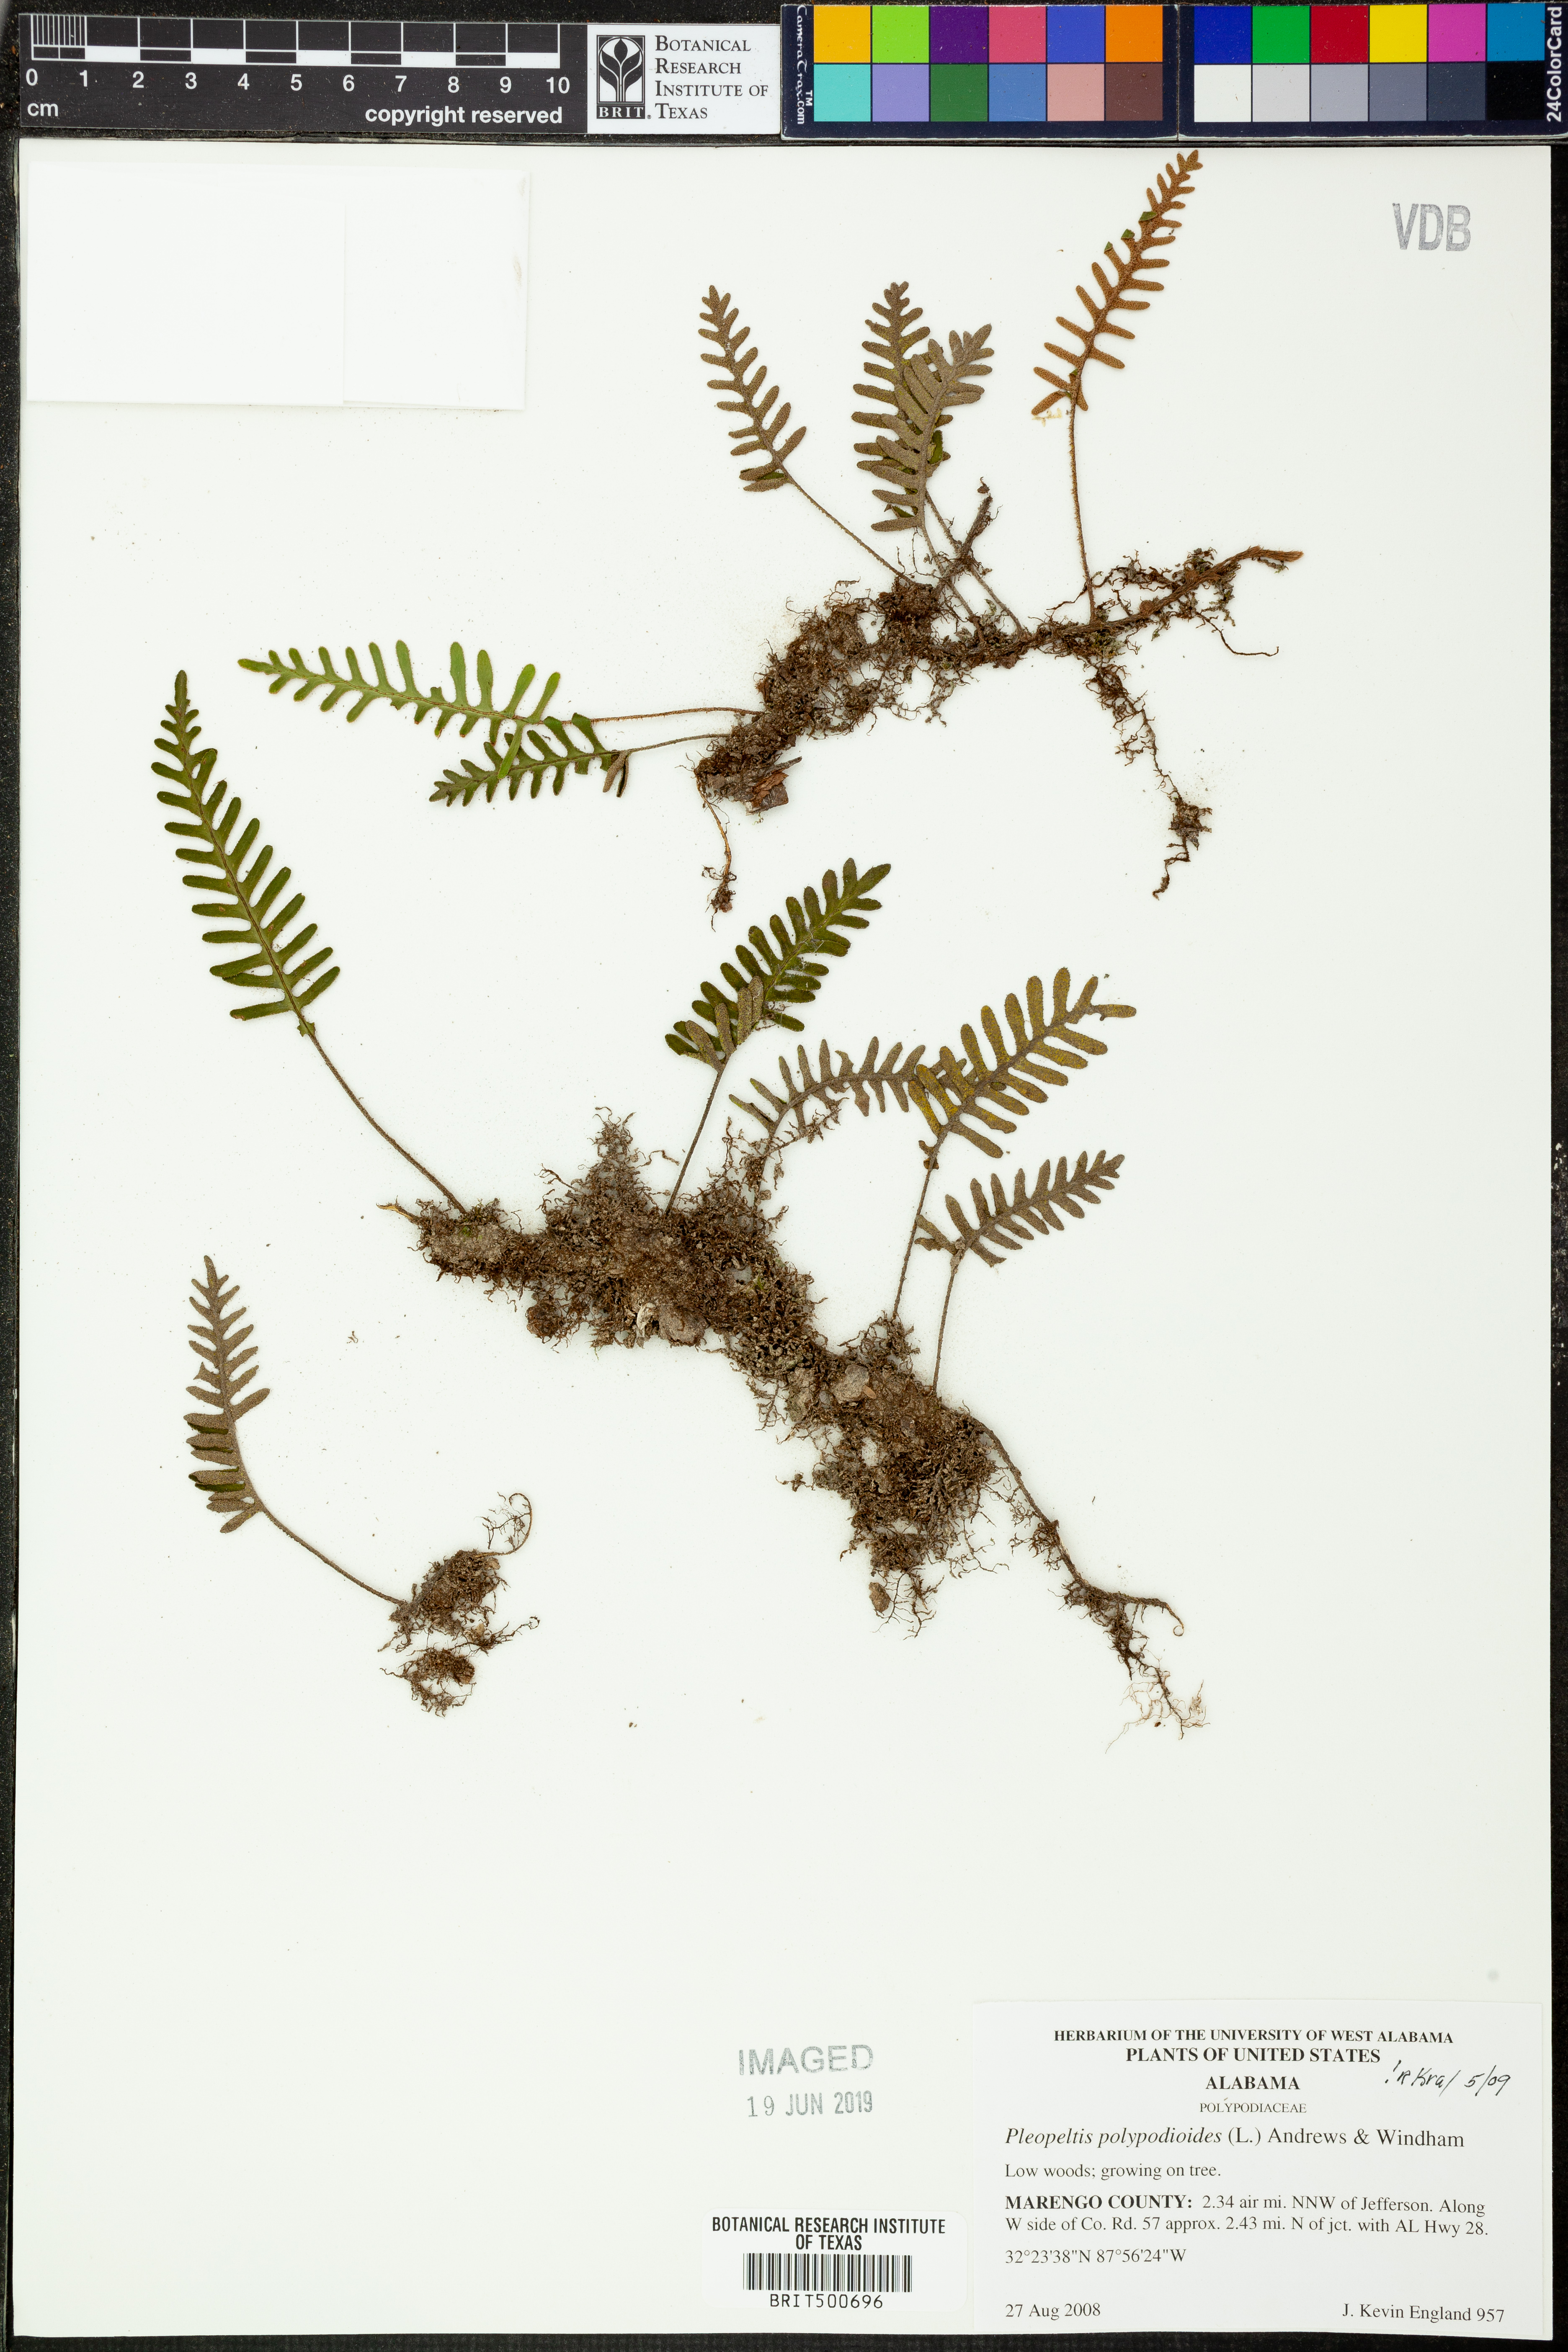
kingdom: Plantae
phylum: Tracheophyta
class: Polypodiopsida
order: Polypodiales
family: Polypodiaceae
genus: Pleopeltis
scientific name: Pleopeltis polypodioides
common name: Resurrection fern
